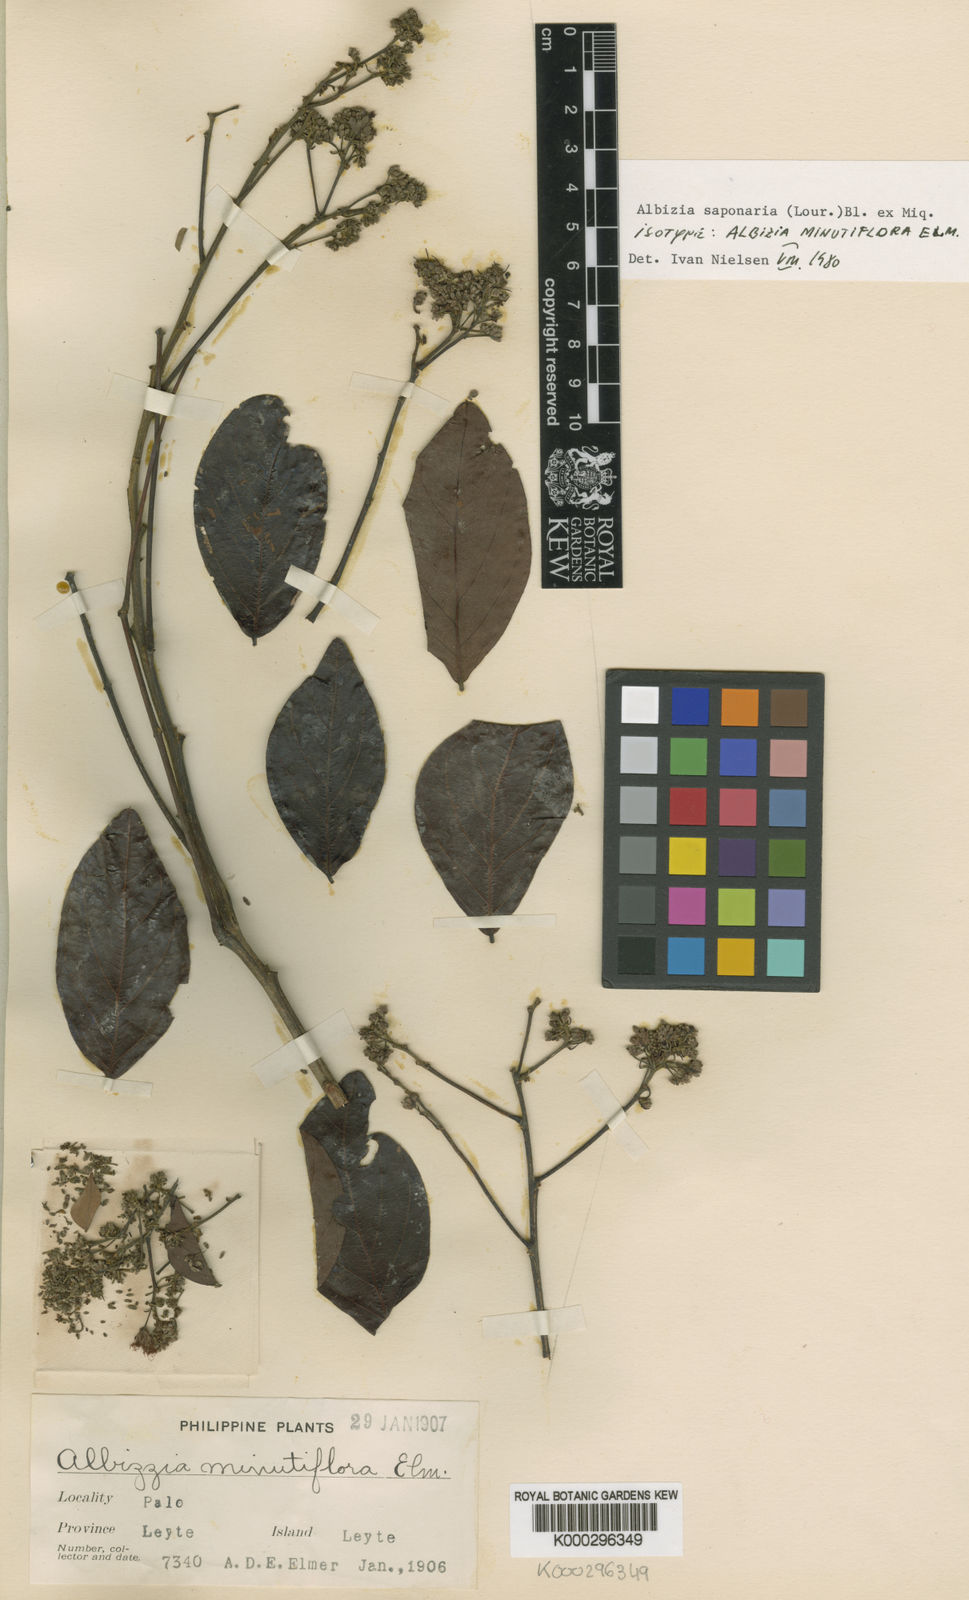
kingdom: Plantae
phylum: Tracheophyta
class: Magnoliopsida
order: Fabales
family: Fabaceae
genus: Albizia
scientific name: Albizia saponaria
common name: Whiteflower albizia
